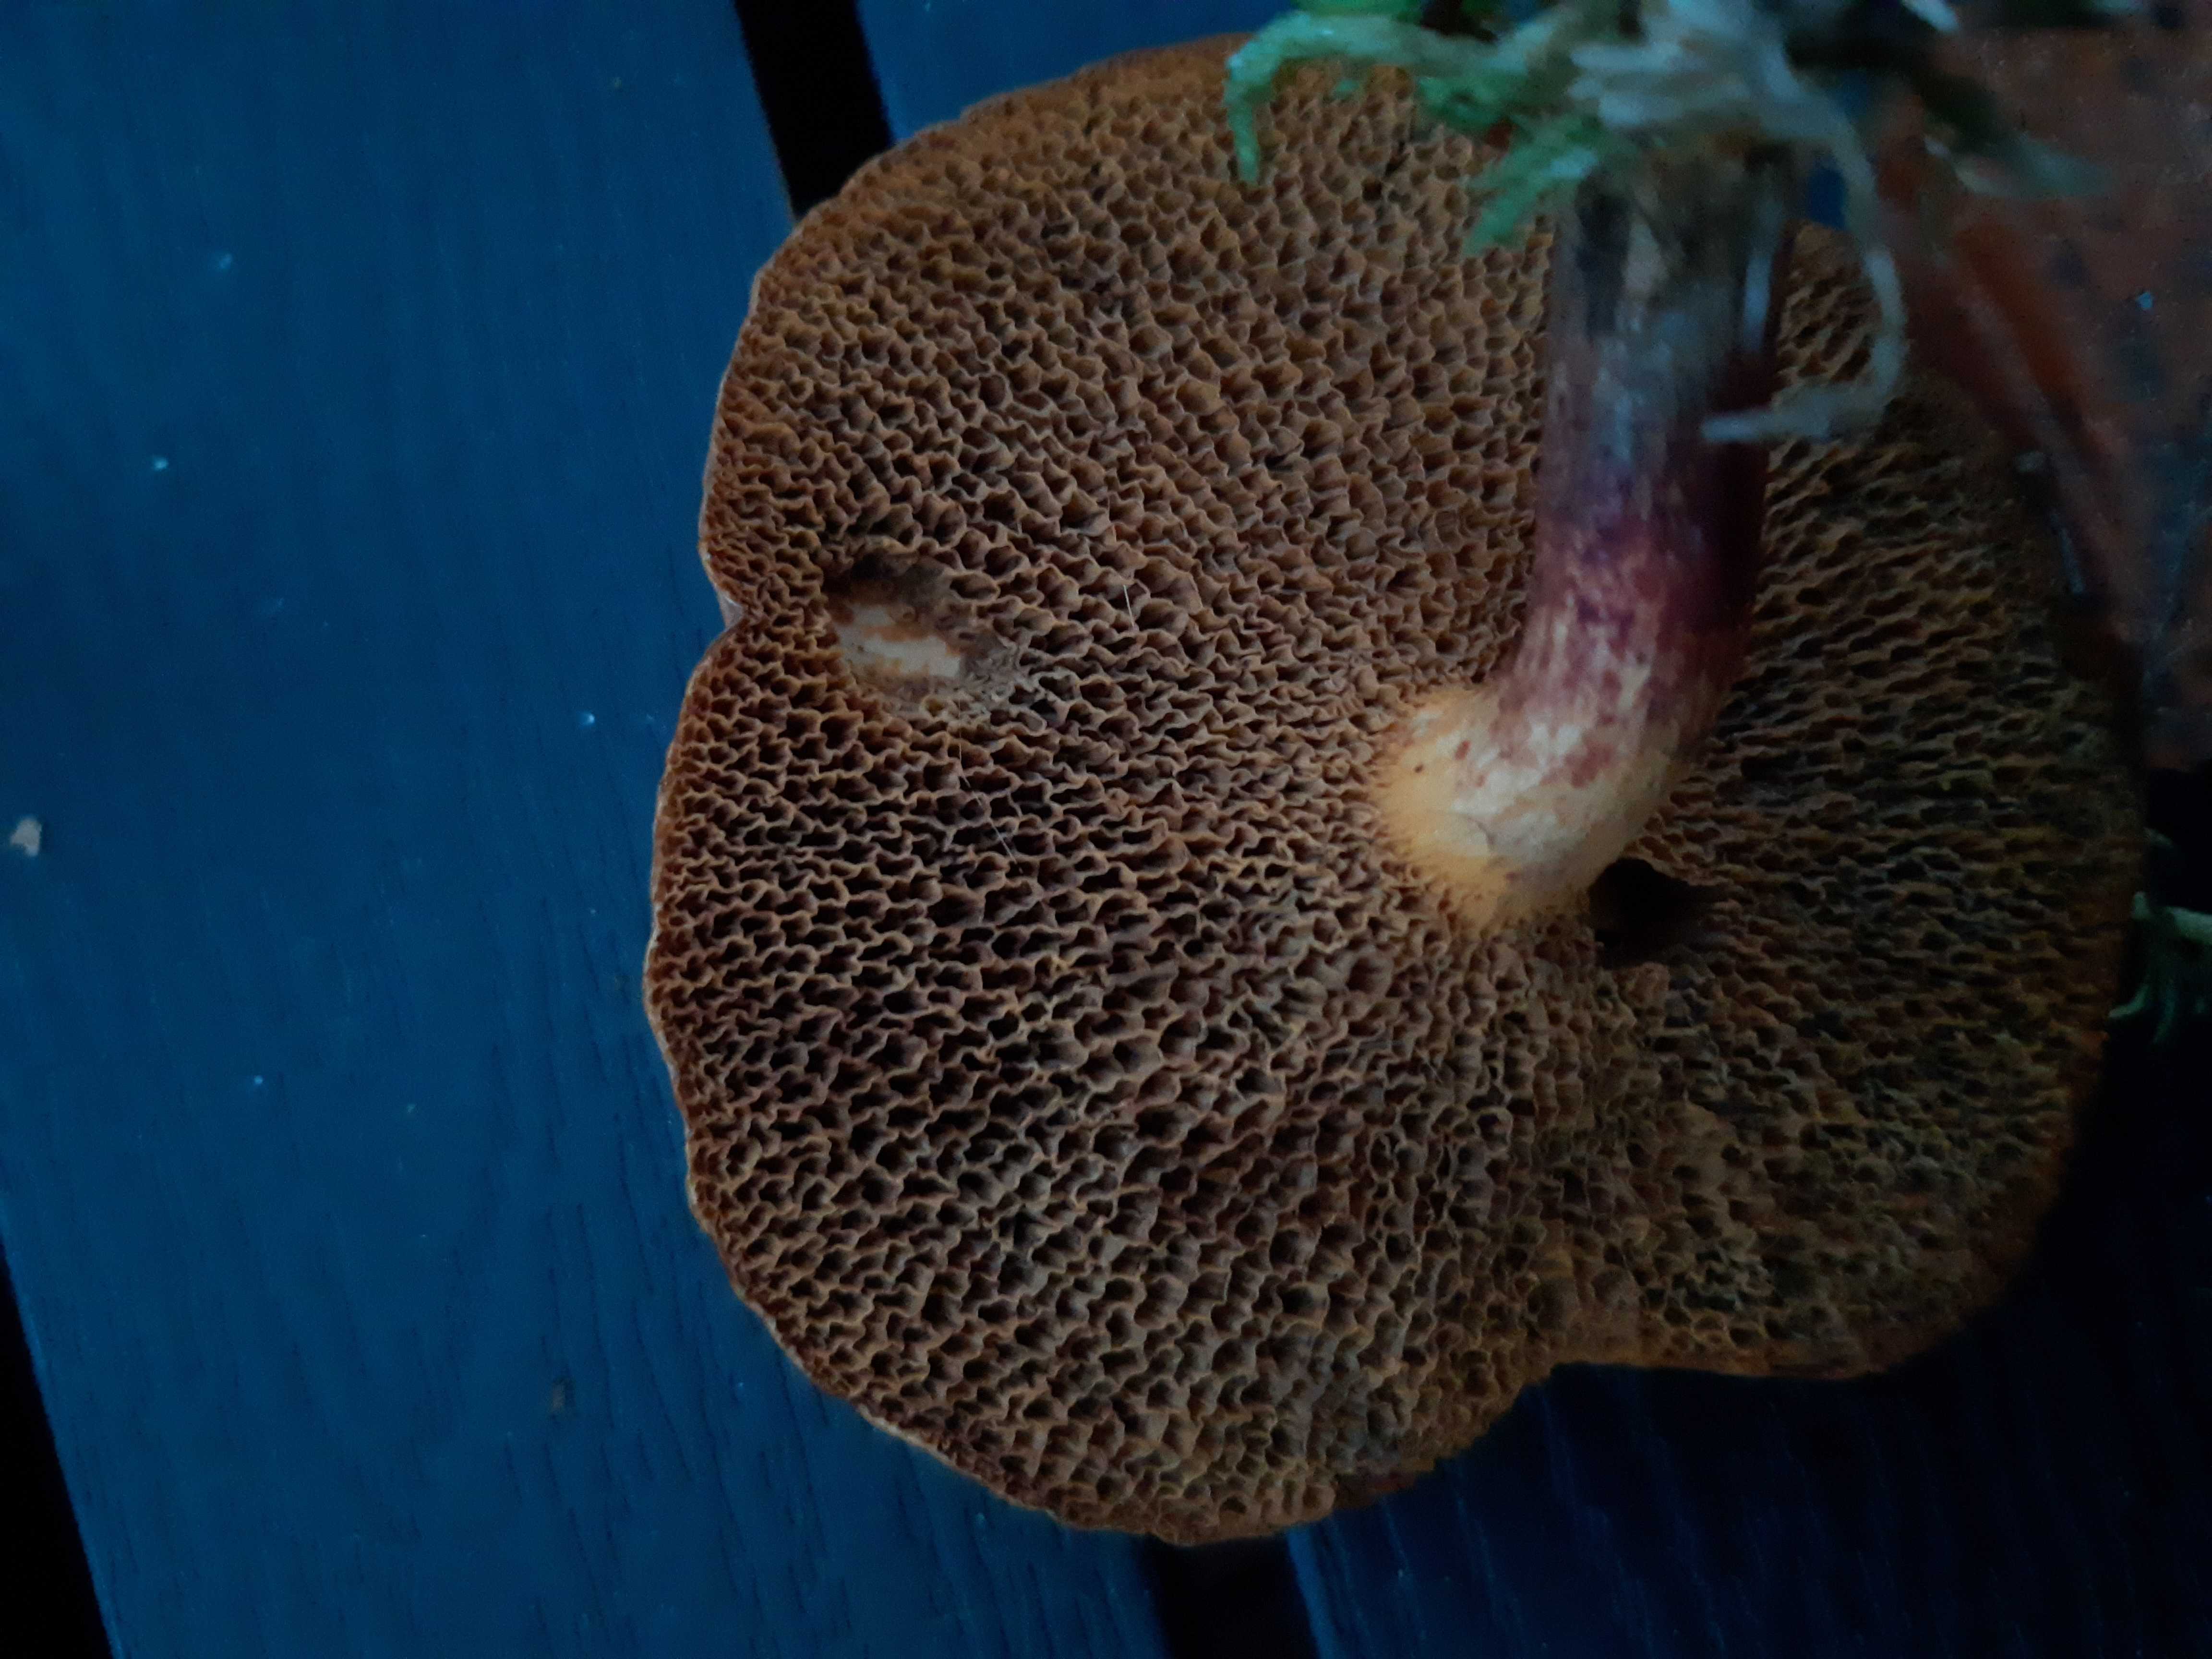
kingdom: Fungi
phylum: Basidiomycota
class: Agaricomycetes
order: Boletales
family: Boletaceae
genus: Xerocomellus
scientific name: Xerocomellus
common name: dværgrørhat
